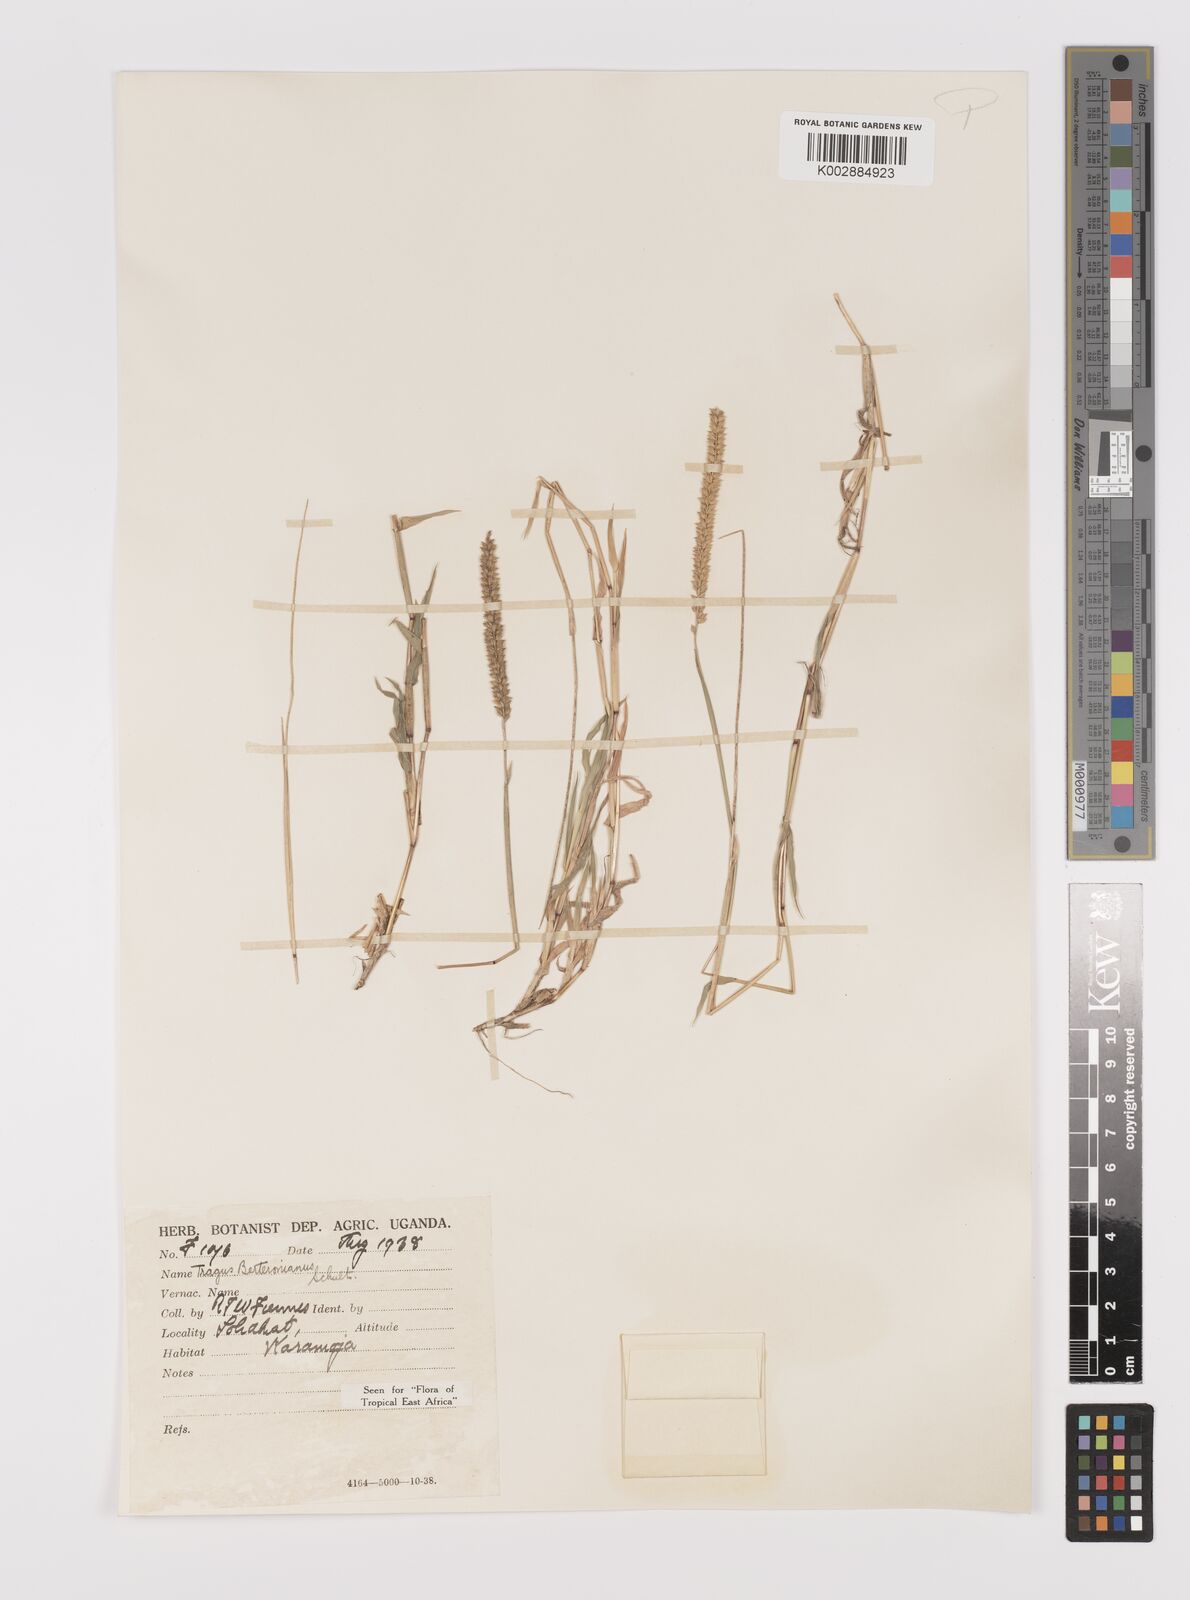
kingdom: Plantae
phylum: Tracheophyta
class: Liliopsida
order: Poales
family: Poaceae
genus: Tragus
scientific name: Tragus berteronianus
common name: African bur-grass
